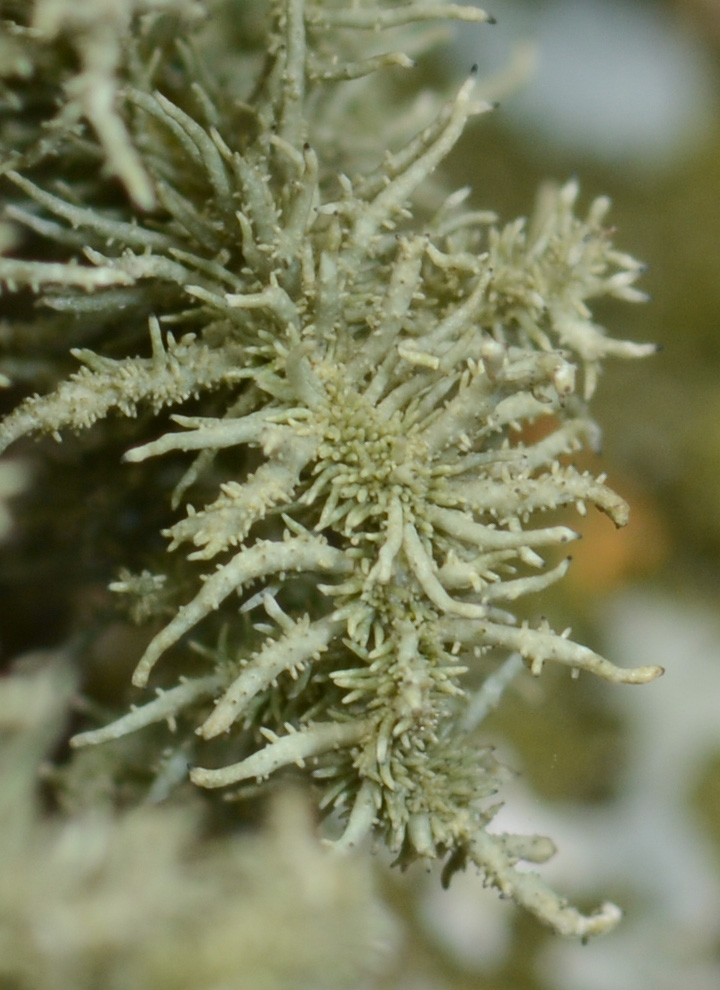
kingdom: Fungi
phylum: Ascomycota
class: Lecanoromycetes
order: Lecanorales
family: Parmeliaceae
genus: Usnea
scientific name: Usnea hirta
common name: liden skæglav
